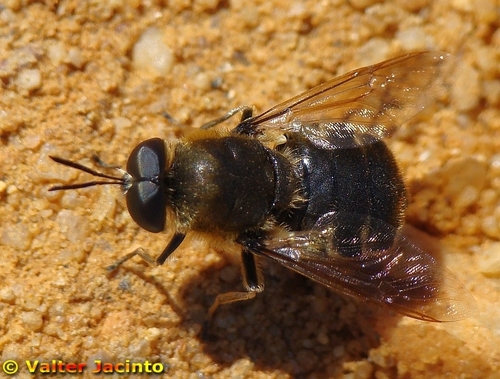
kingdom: Animalia
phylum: Arthropoda
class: Insecta
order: Diptera
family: Stratiomyidae
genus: Stratiomys
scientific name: Stratiomys longicornis
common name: Long-horned general
